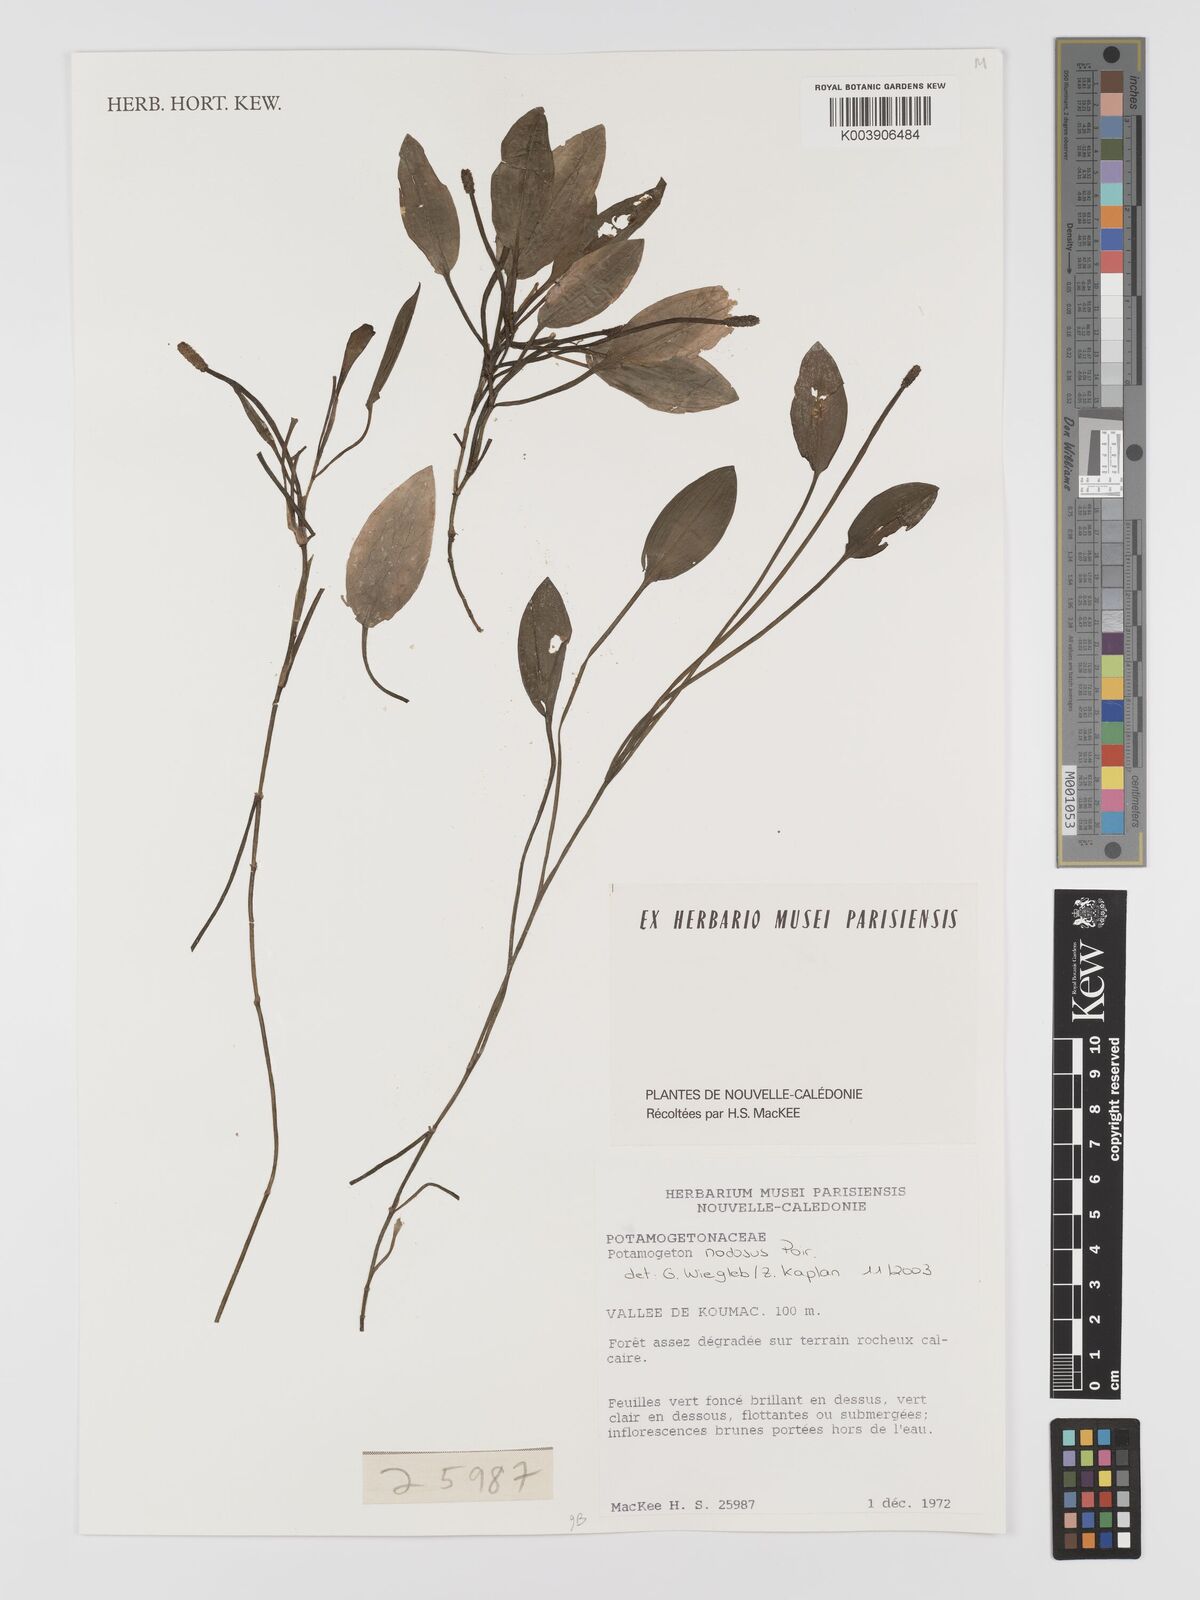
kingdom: Plantae
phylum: Tracheophyta
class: Liliopsida
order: Alismatales
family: Potamogetonaceae
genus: Potamogeton
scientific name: Potamogeton nodosus
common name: Loddon pondweed
